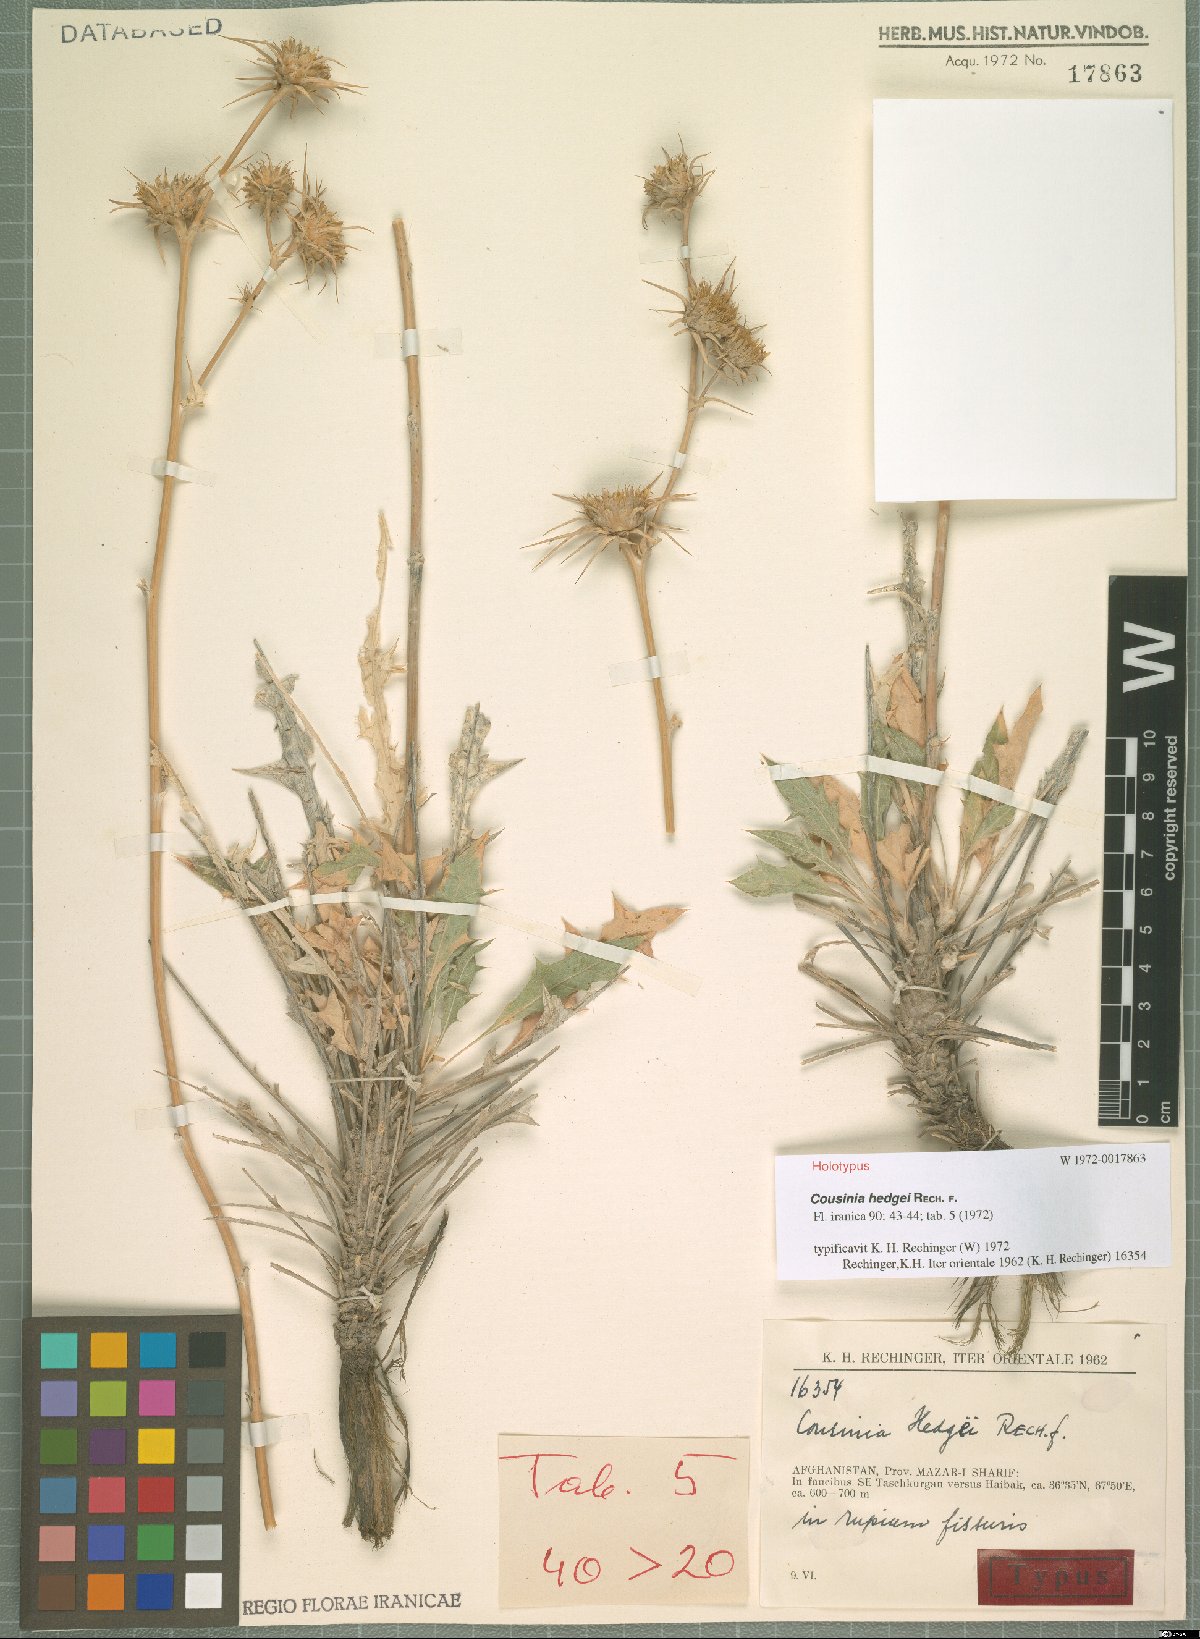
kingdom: Plantae
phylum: Tracheophyta
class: Magnoliopsida
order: Asterales
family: Asteraceae
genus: Cousinia
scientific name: Cousinia hedgei
